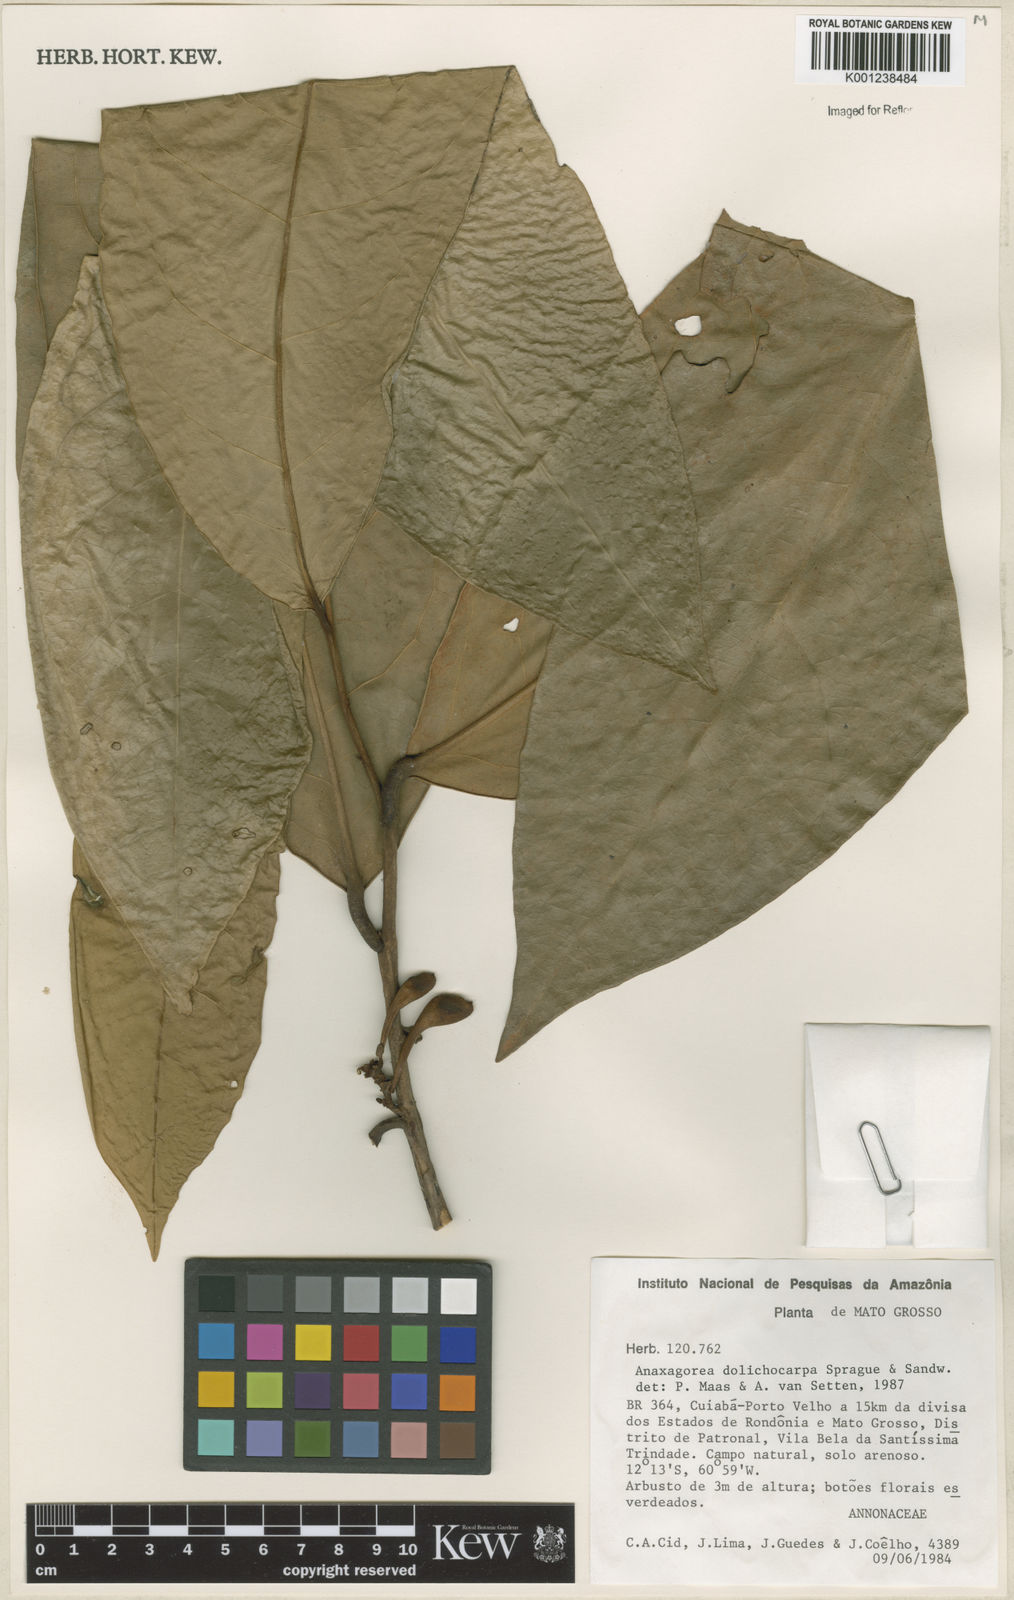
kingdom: Plantae
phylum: Tracheophyta
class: Magnoliopsida
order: Magnoliales
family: Annonaceae
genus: Anaxagorea
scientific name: Anaxagorea dolichocarpa
